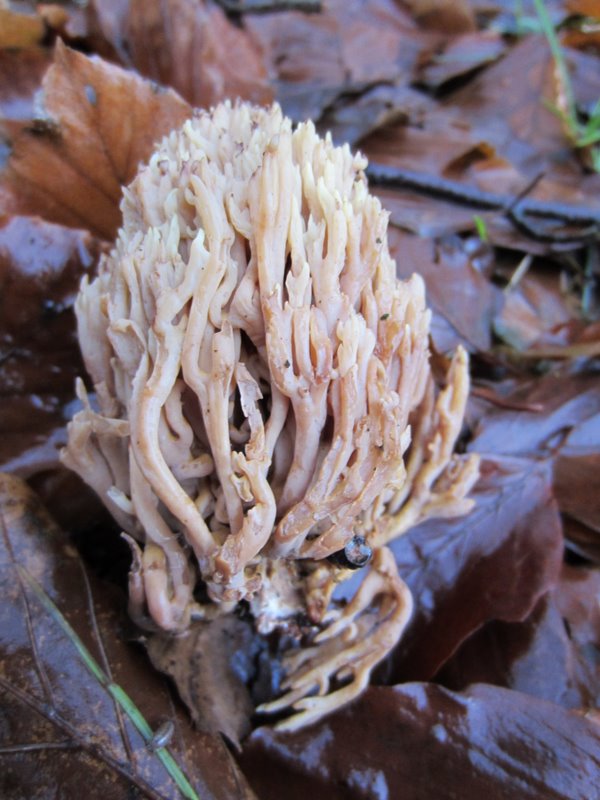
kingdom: Fungi
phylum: Basidiomycota
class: Agaricomycetes
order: Gomphales
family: Gomphaceae
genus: Ramaria
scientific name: Ramaria stricta
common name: rank koralsvamp
